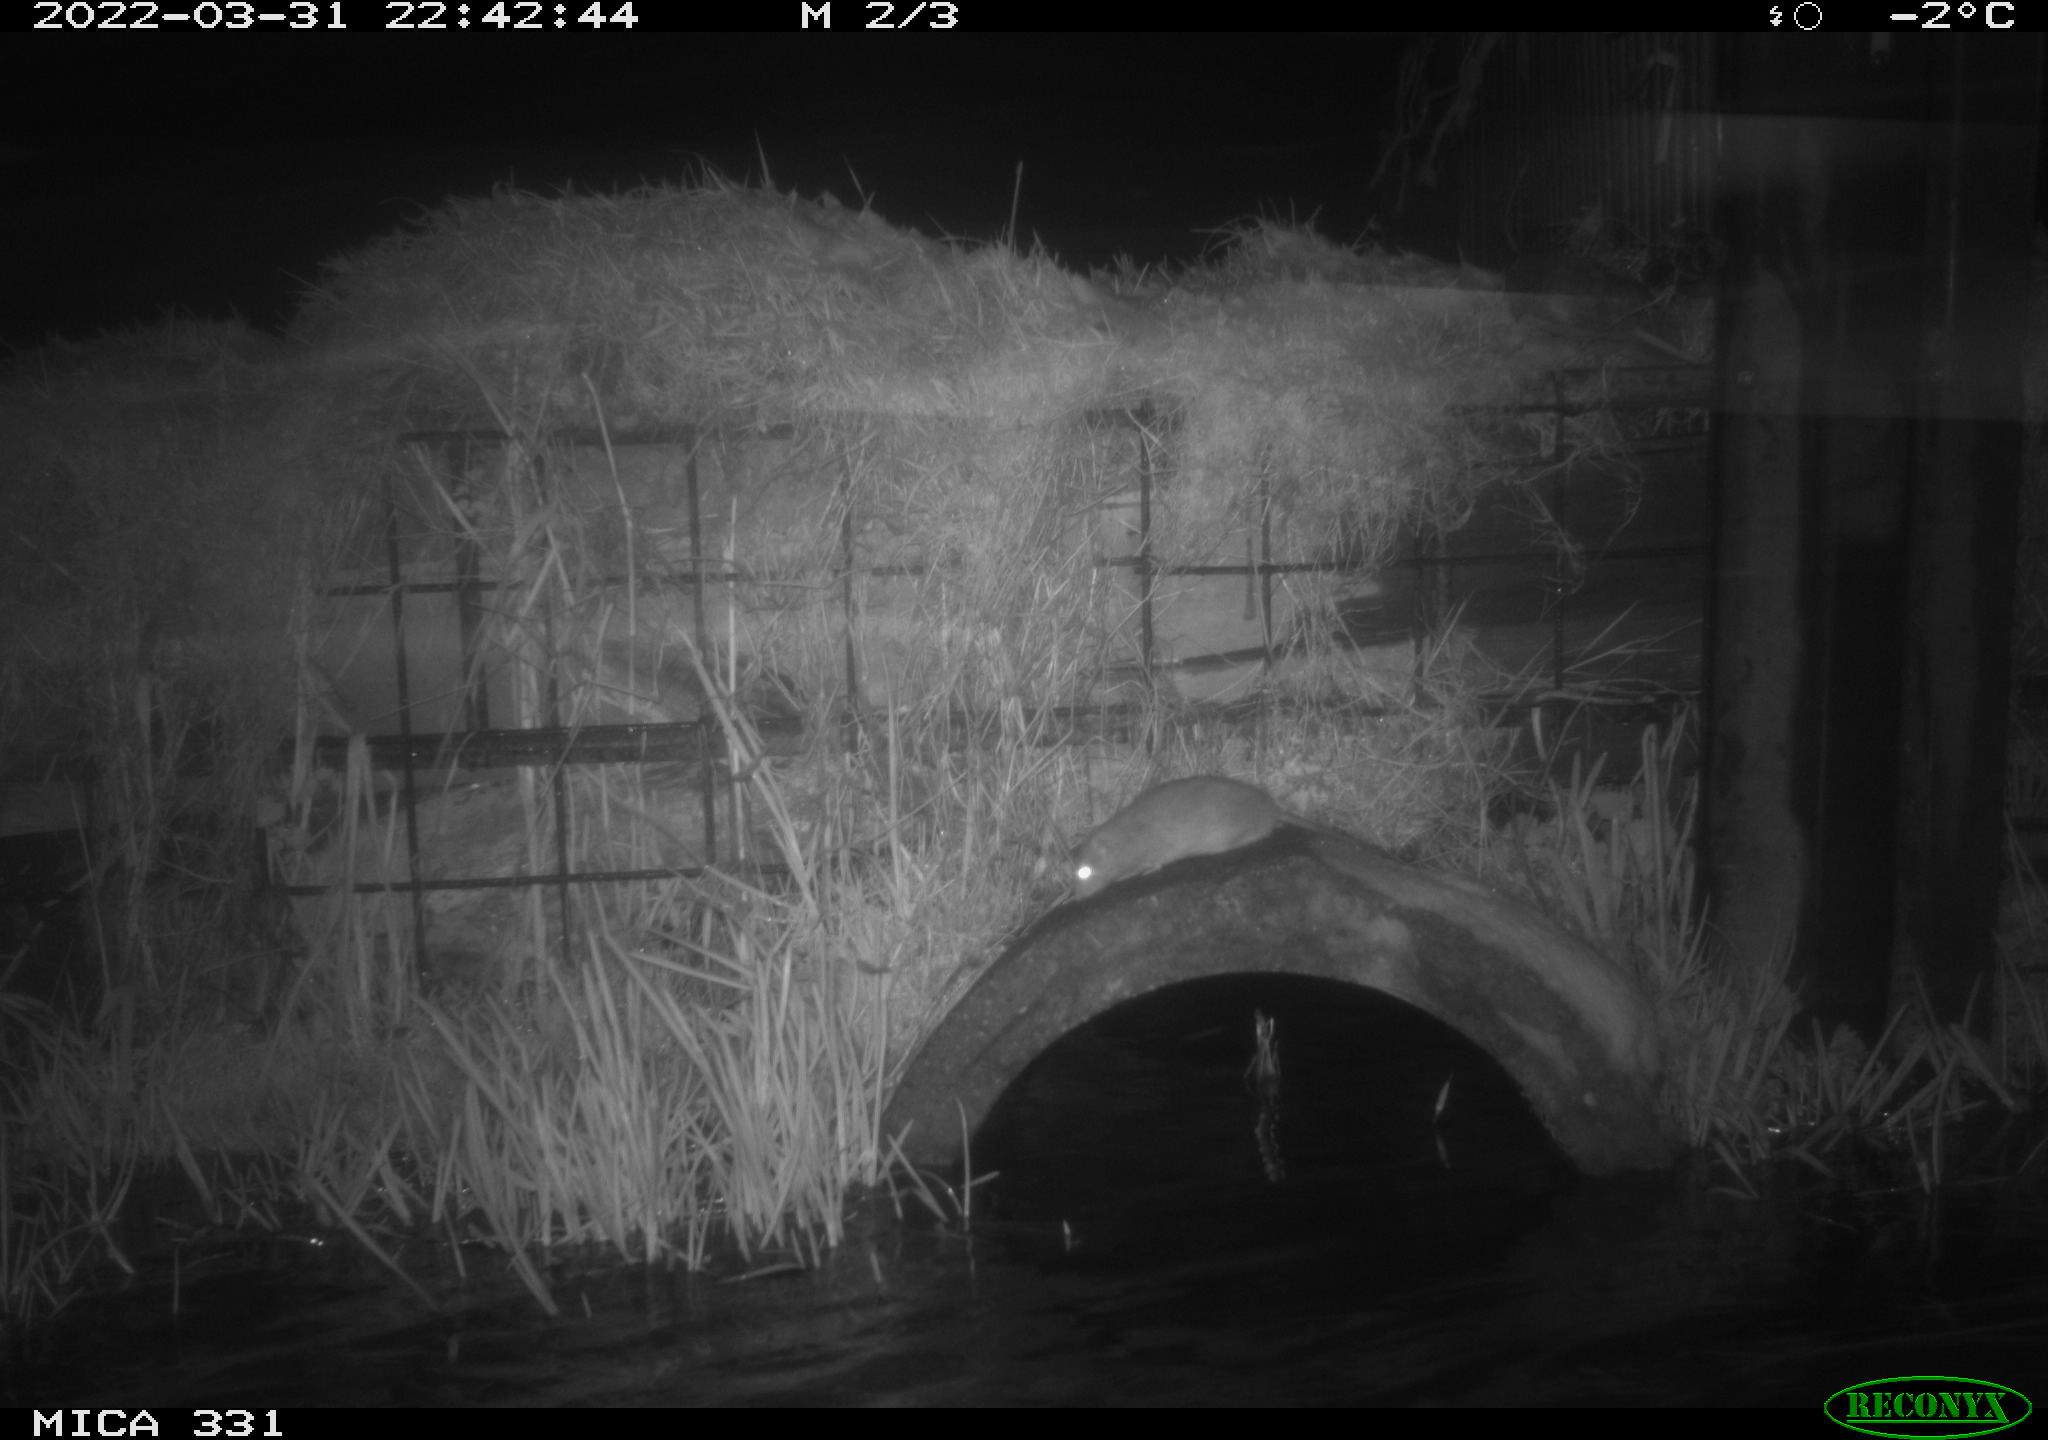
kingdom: Animalia
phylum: Chordata
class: Mammalia
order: Rodentia
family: Muridae
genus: Rattus
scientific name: Rattus norvegicus
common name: Brown rat
